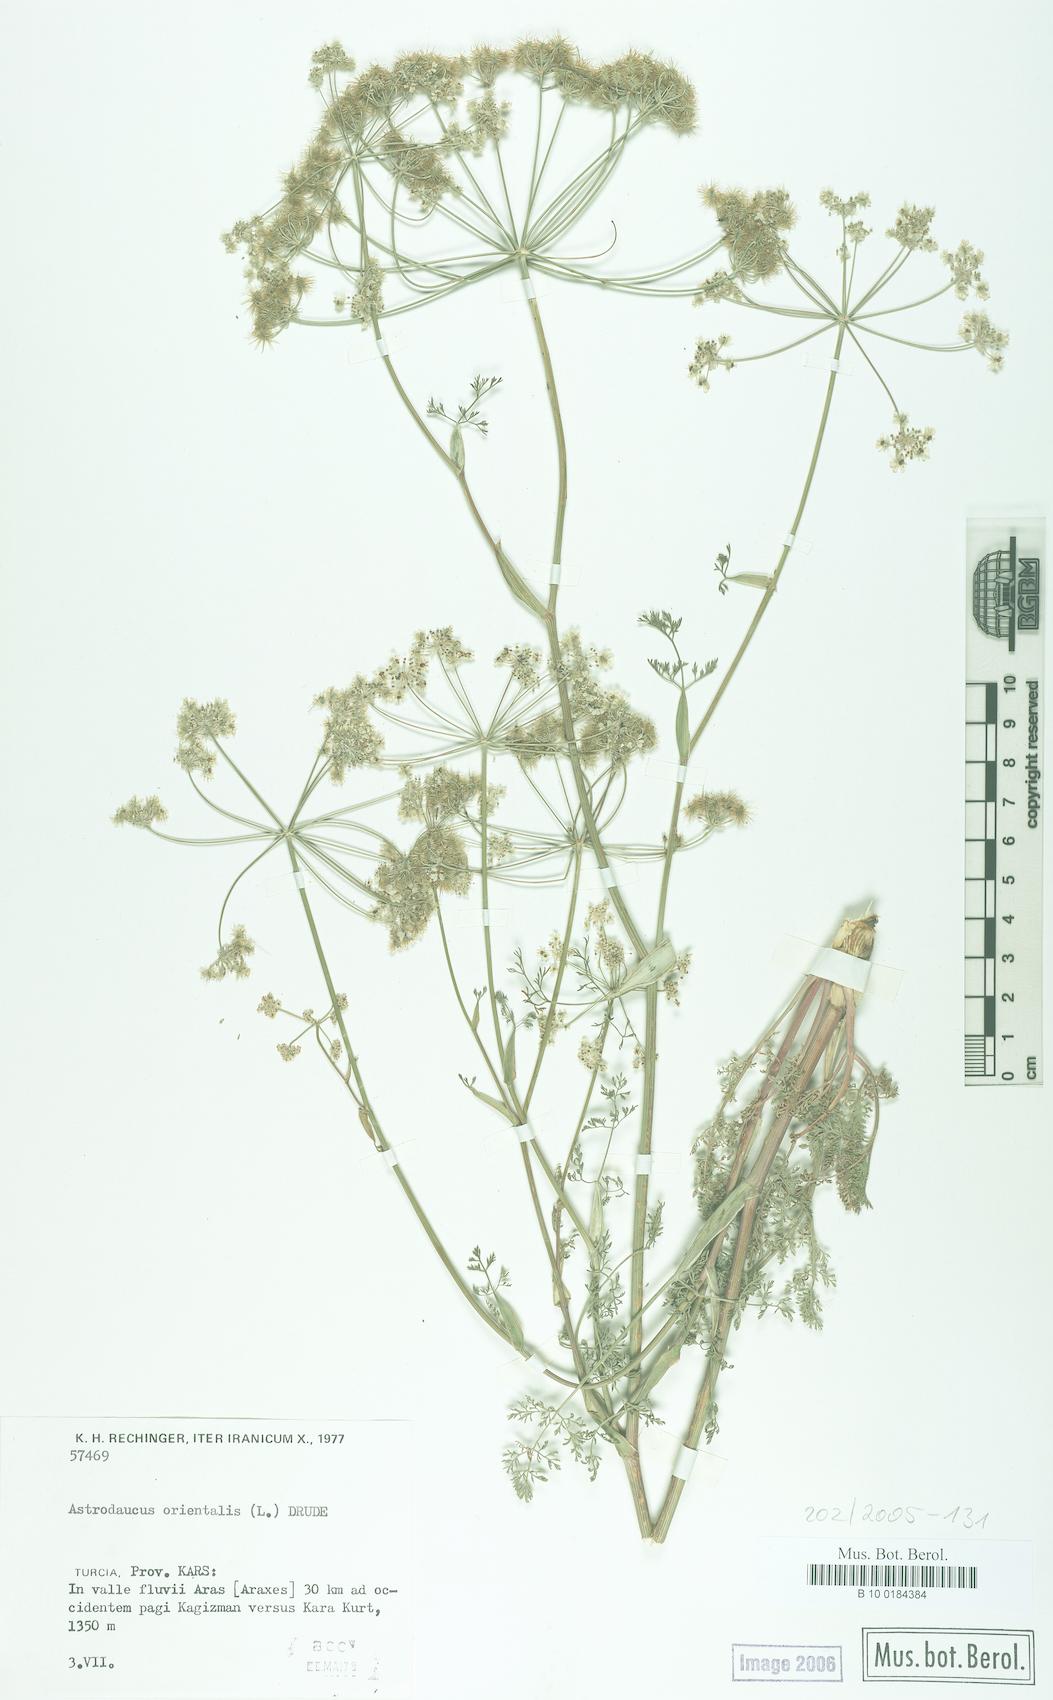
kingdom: Plantae
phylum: Tracheophyta
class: Magnoliopsida
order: Apiales
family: Apiaceae
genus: Astrodaucus
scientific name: Astrodaucus orientalis
